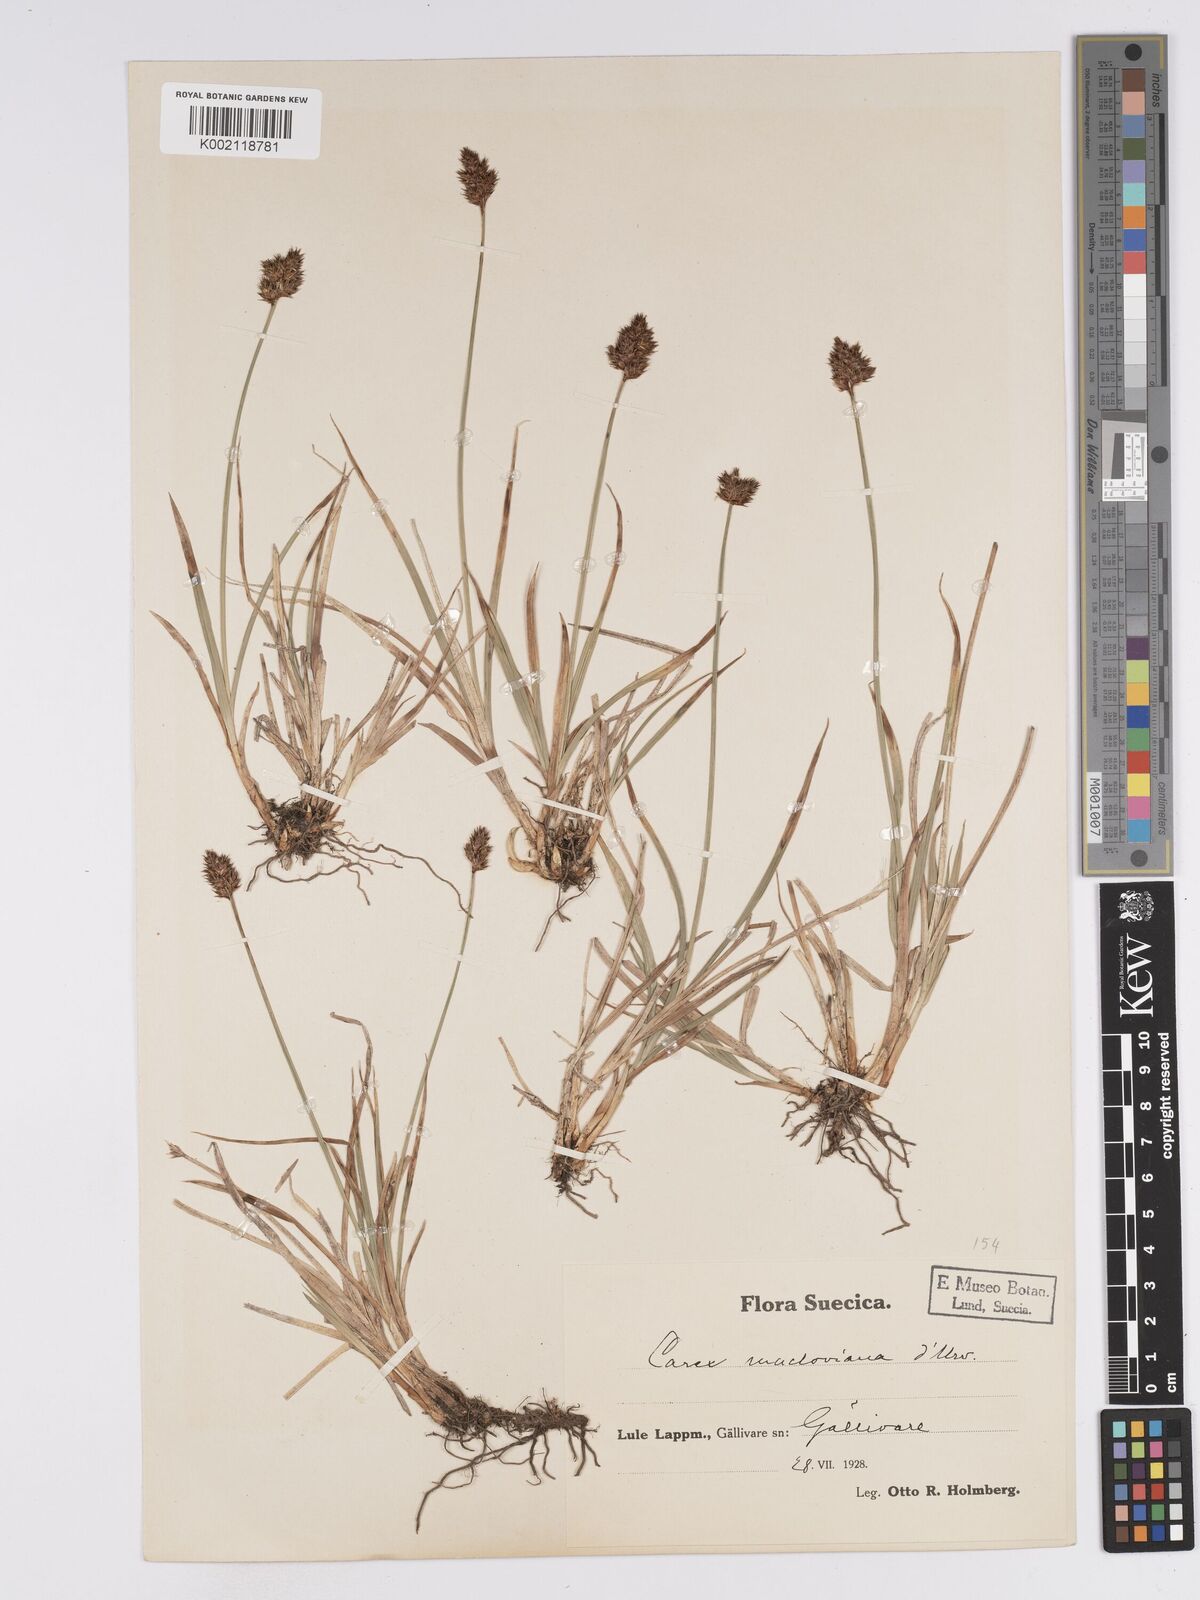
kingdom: Plantae
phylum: Tracheophyta
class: Liliopsida
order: Poales
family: Cyperaceae
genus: Carex
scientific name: Carex macloviana
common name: Falkland island sedge
